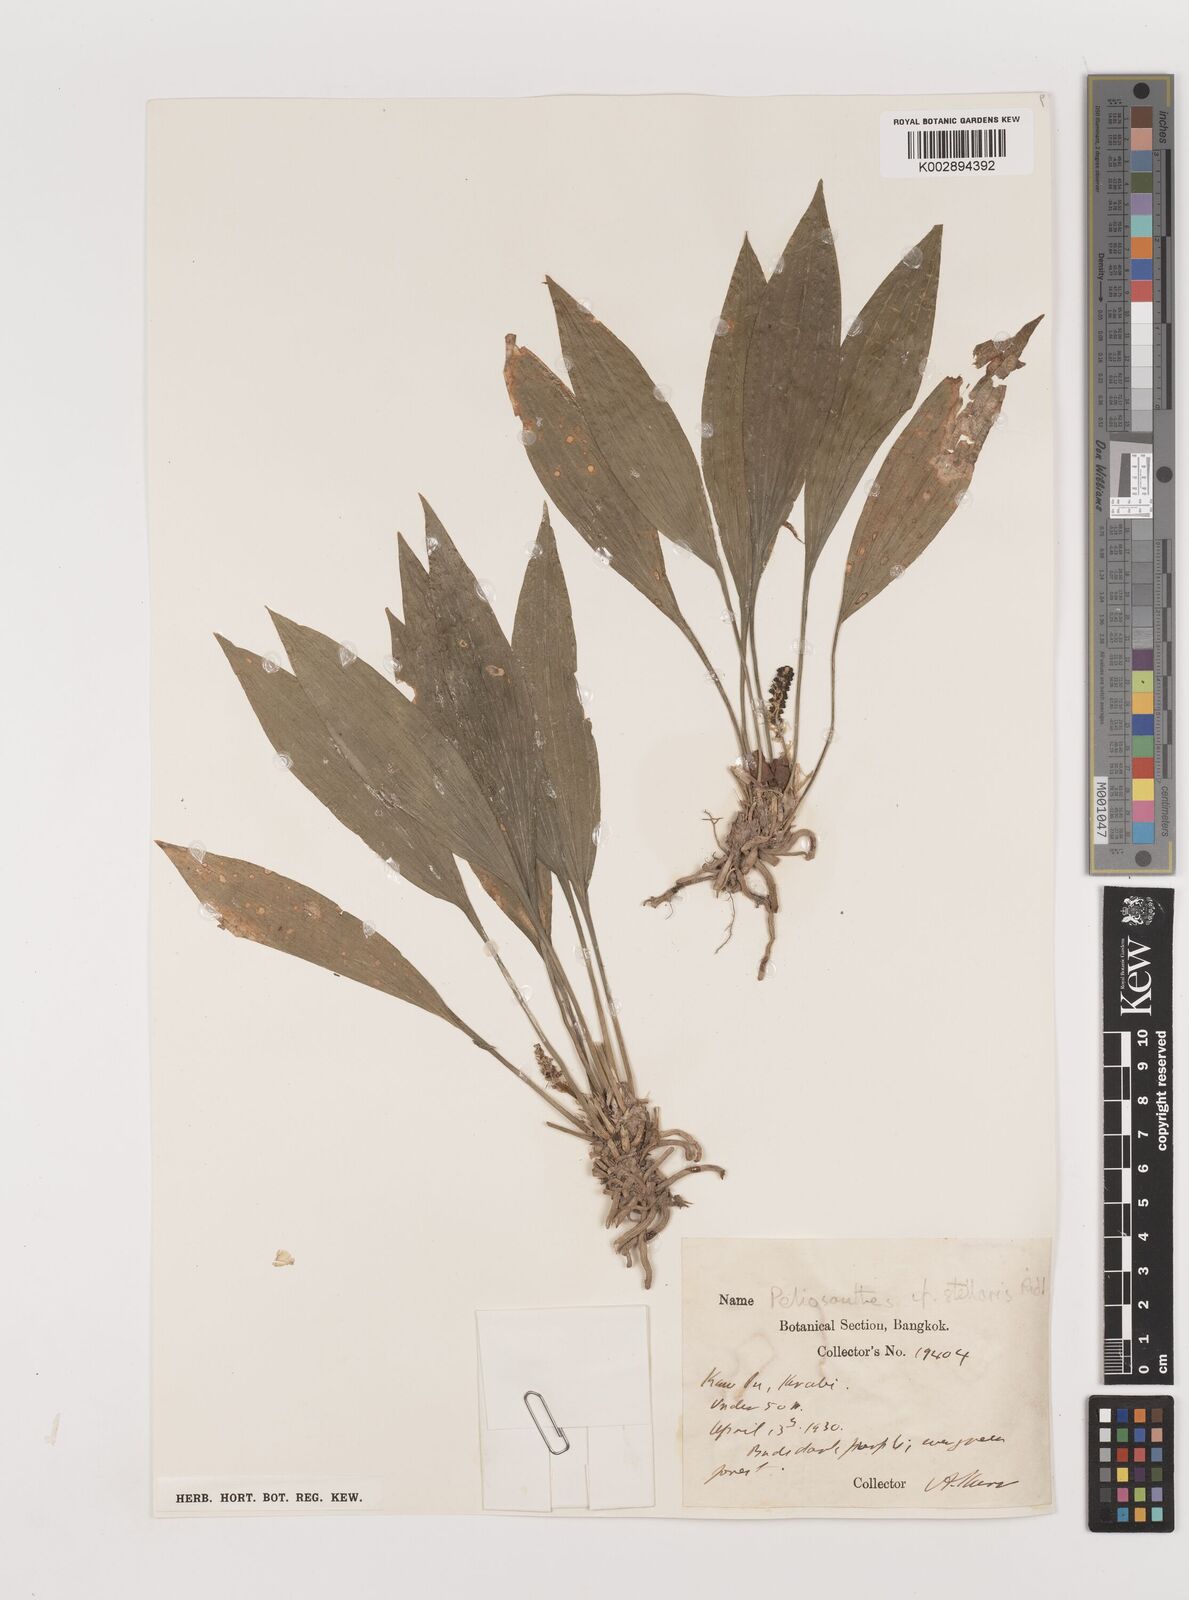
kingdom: Plantae
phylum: Tracheophyta
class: Liliopsida
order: Asparagales
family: Asparagaceae
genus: Peliosanthes
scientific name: Peliosanthes teta
